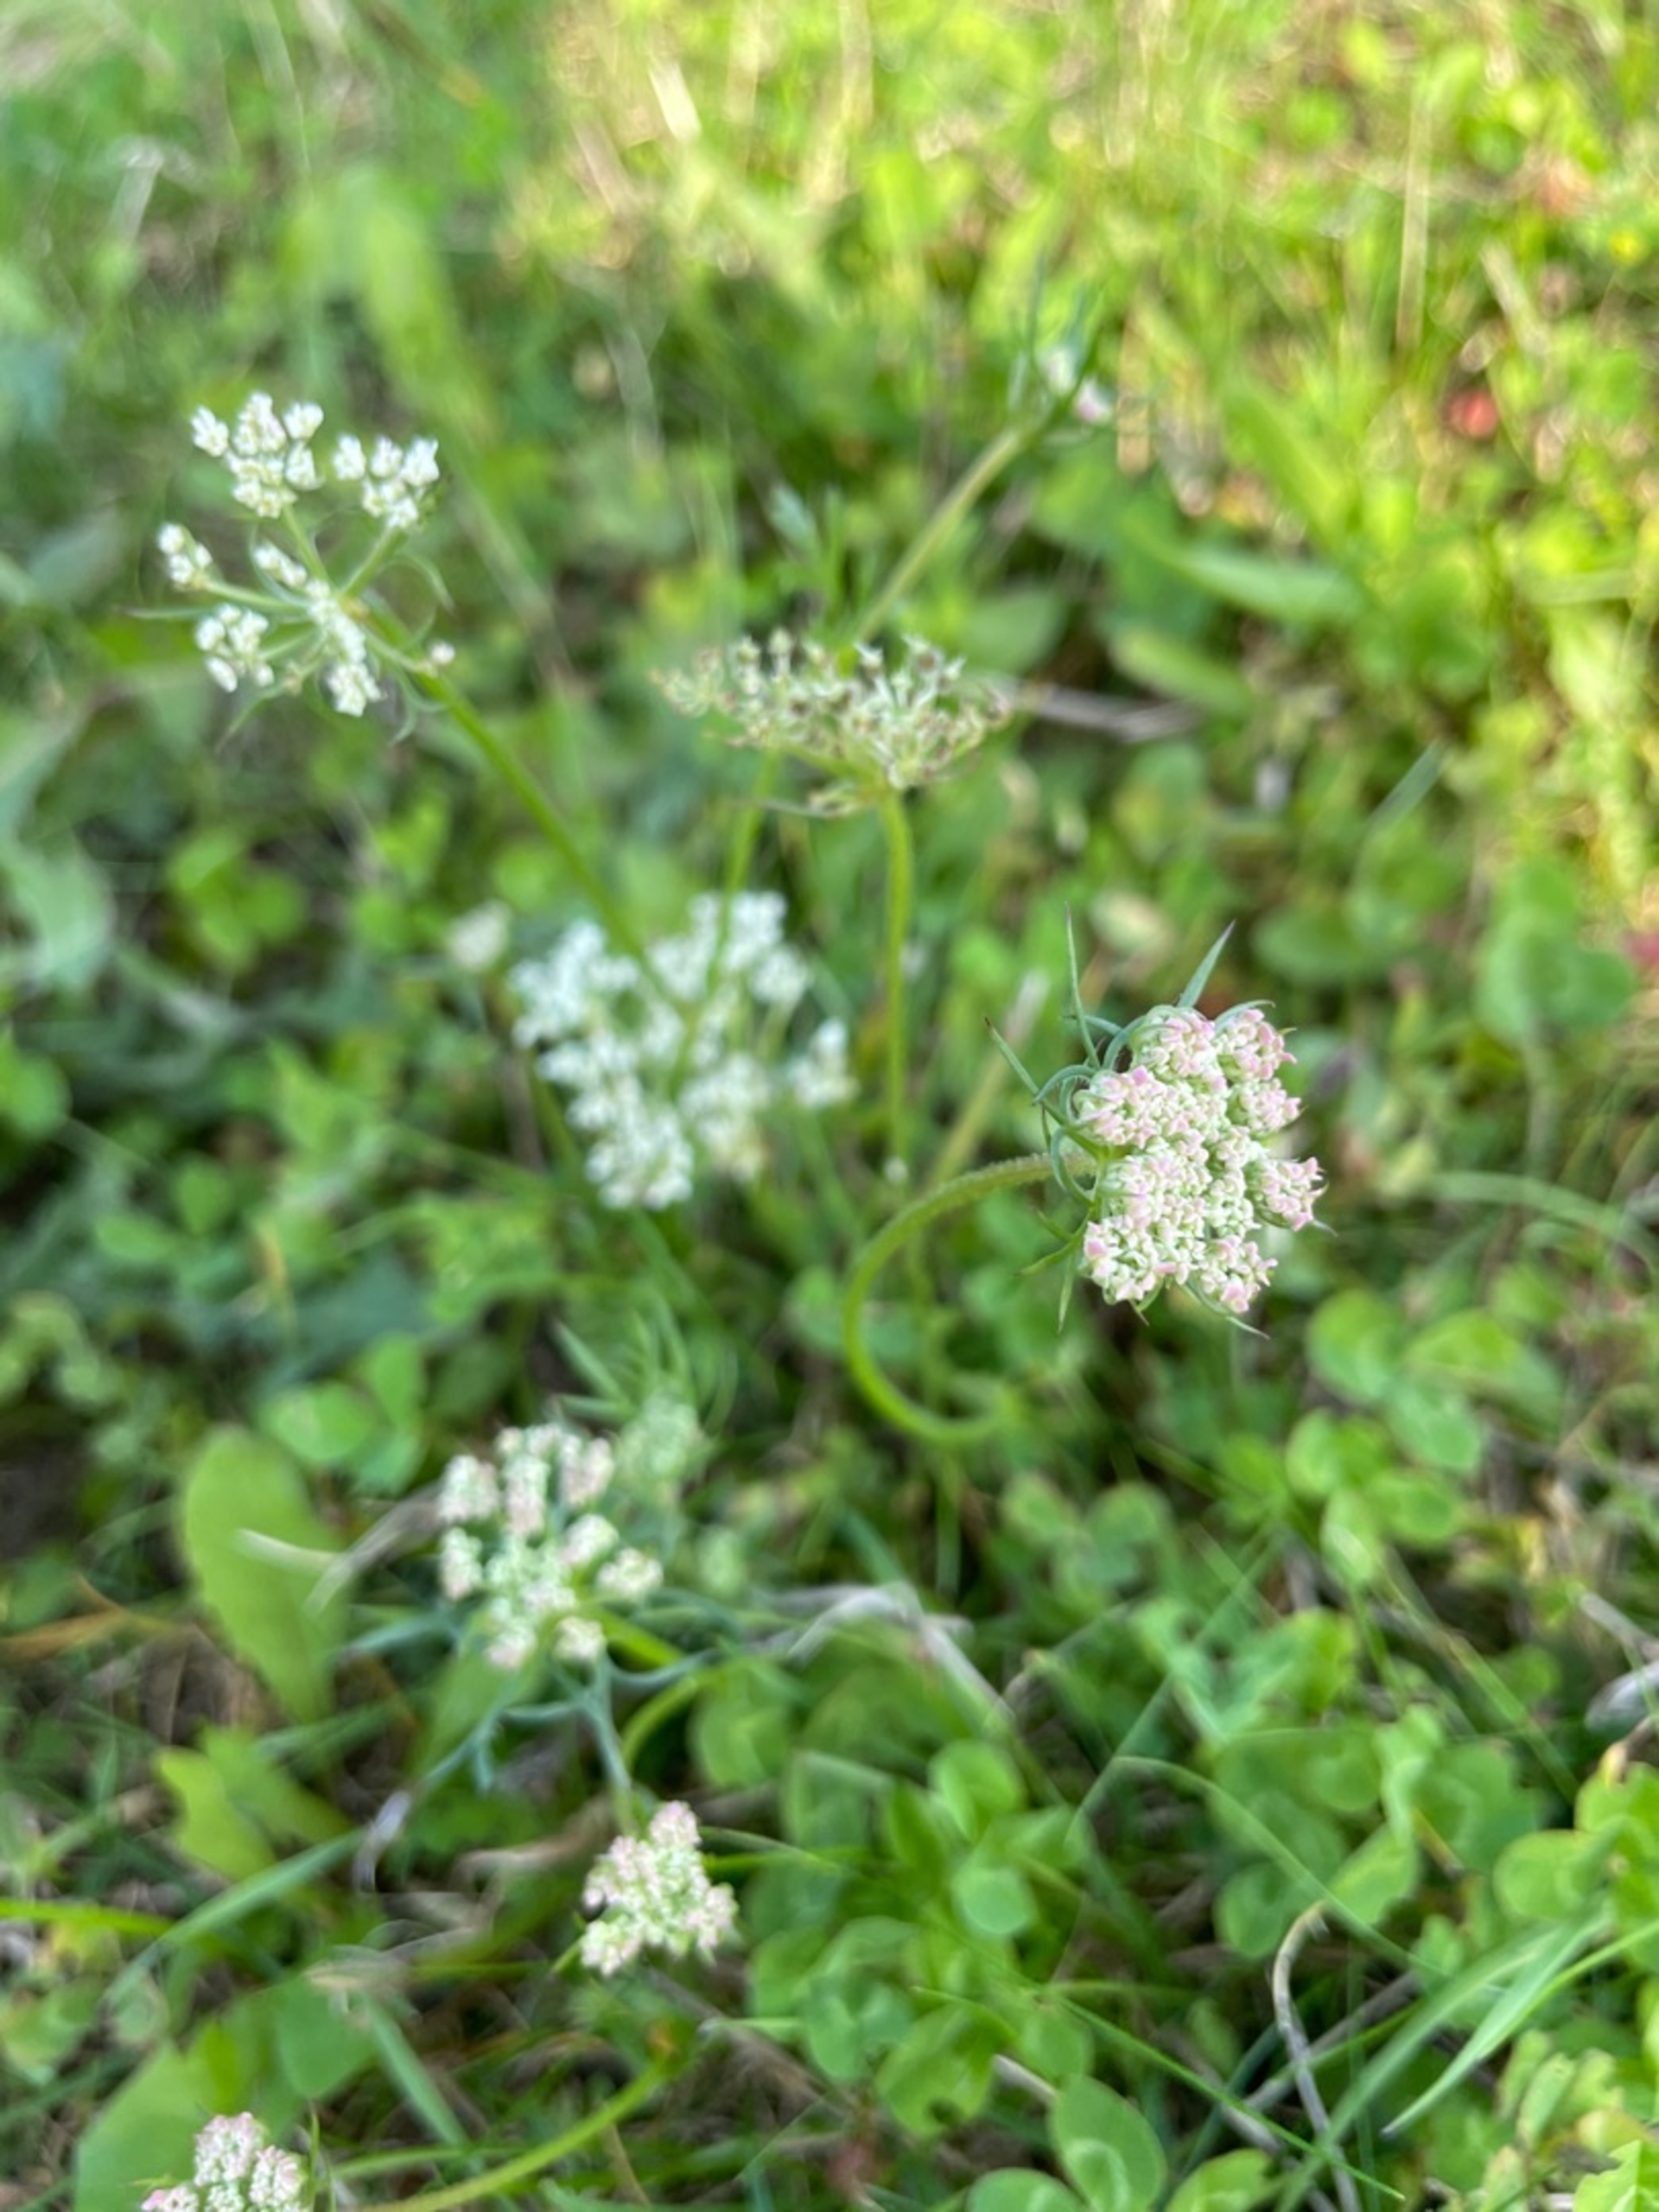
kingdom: Plantae
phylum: Tracheophyta
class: Magnoliopsida
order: Apiales
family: Apiaceae
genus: Daucus
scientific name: Daucus carota
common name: Vild gulerod
